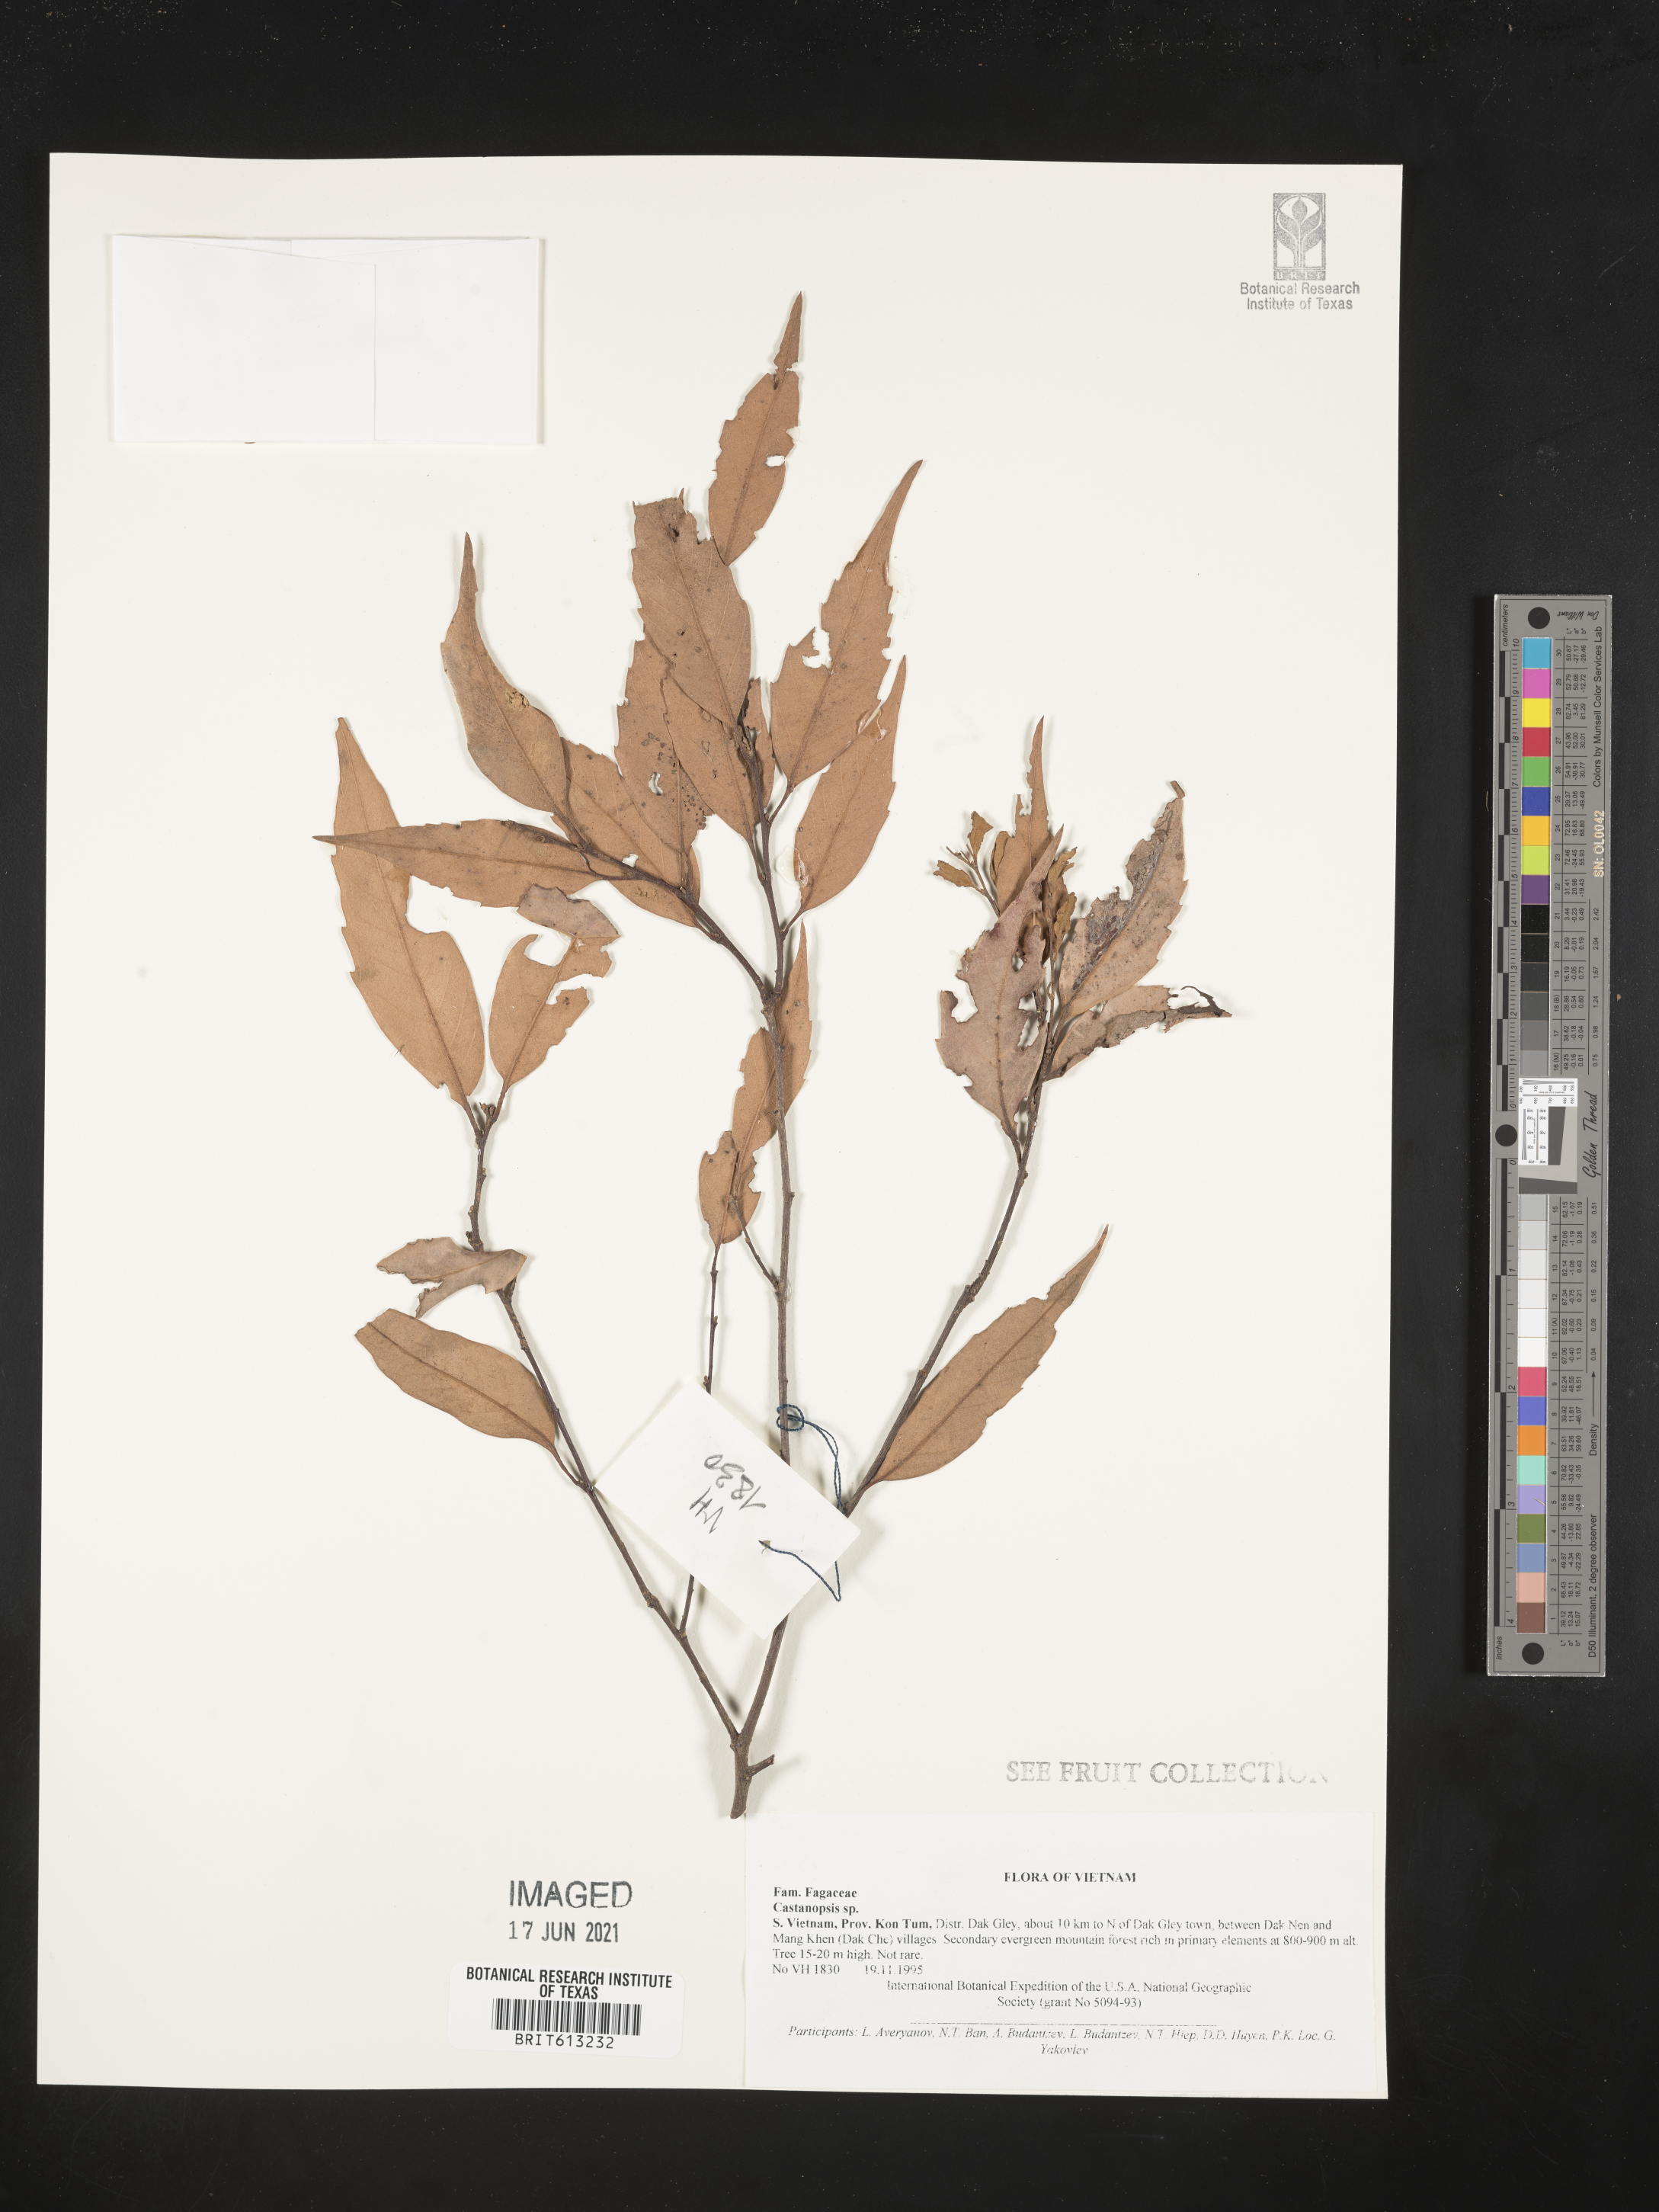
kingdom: Plantae
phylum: Tracheophyta
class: Magnoliopsida
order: Fagales
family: Fagaceae
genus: Castanopsis
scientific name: Castanopsis
